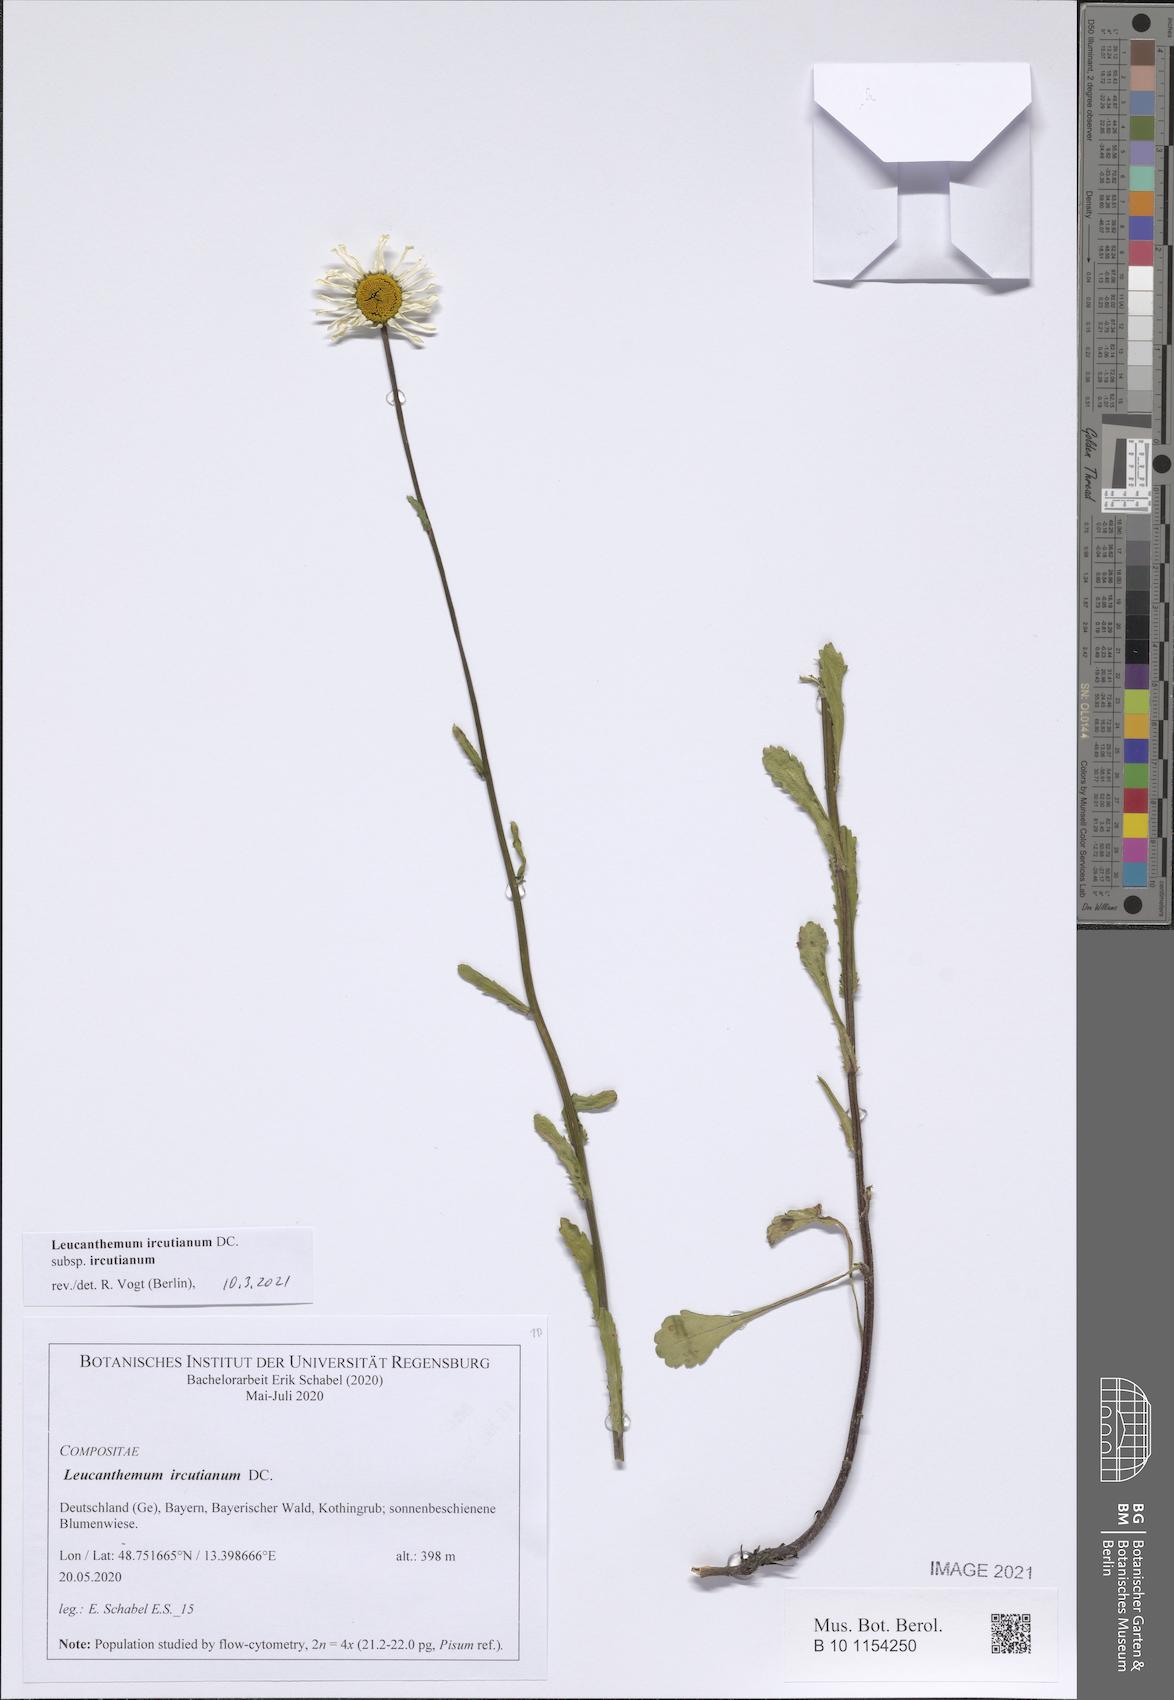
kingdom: Plantae
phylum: Tracheophyta
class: Magnoliopsida
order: Asterales
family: Asteraceae
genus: Leucanthemum
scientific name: Leucanthemum ircutianum
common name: Daisy
